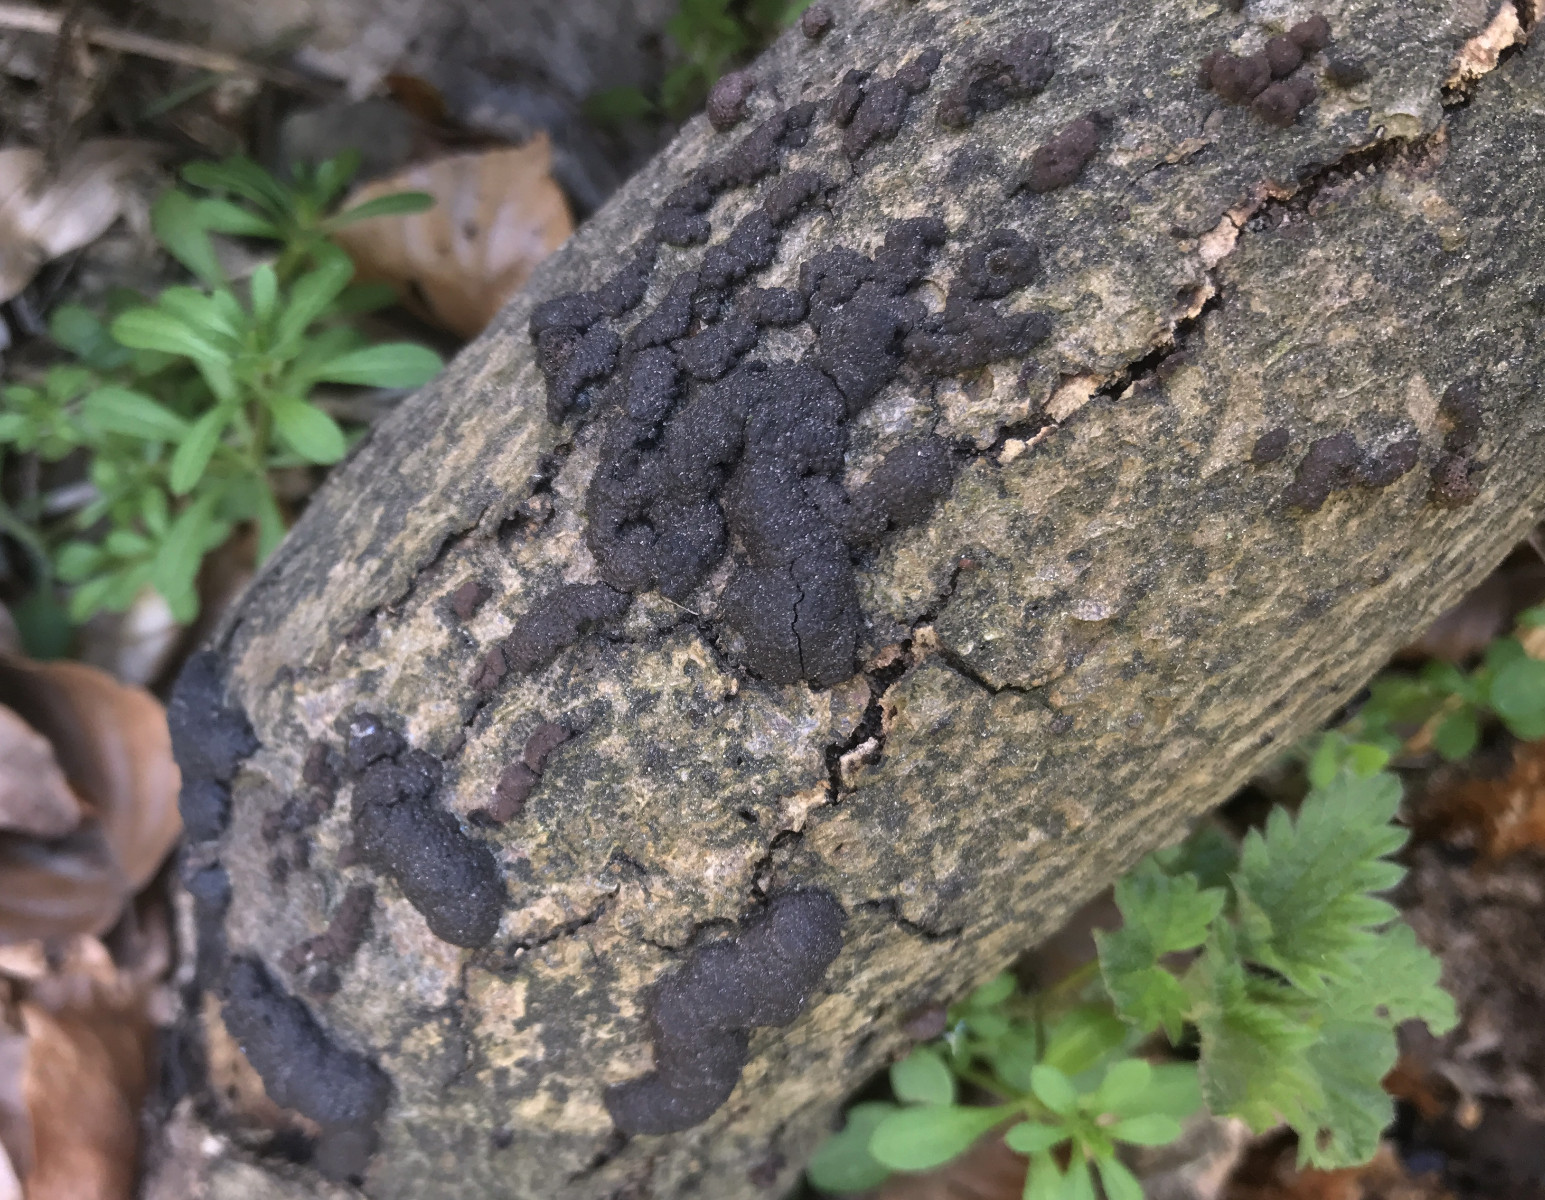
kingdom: Fungi
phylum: Ascomycota
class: Sordariomycetes
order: Xylariales
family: Hypoxylaceae
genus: Jackrogersella
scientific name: Jackrogersella cohaerens
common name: sammenflydende kulbær
